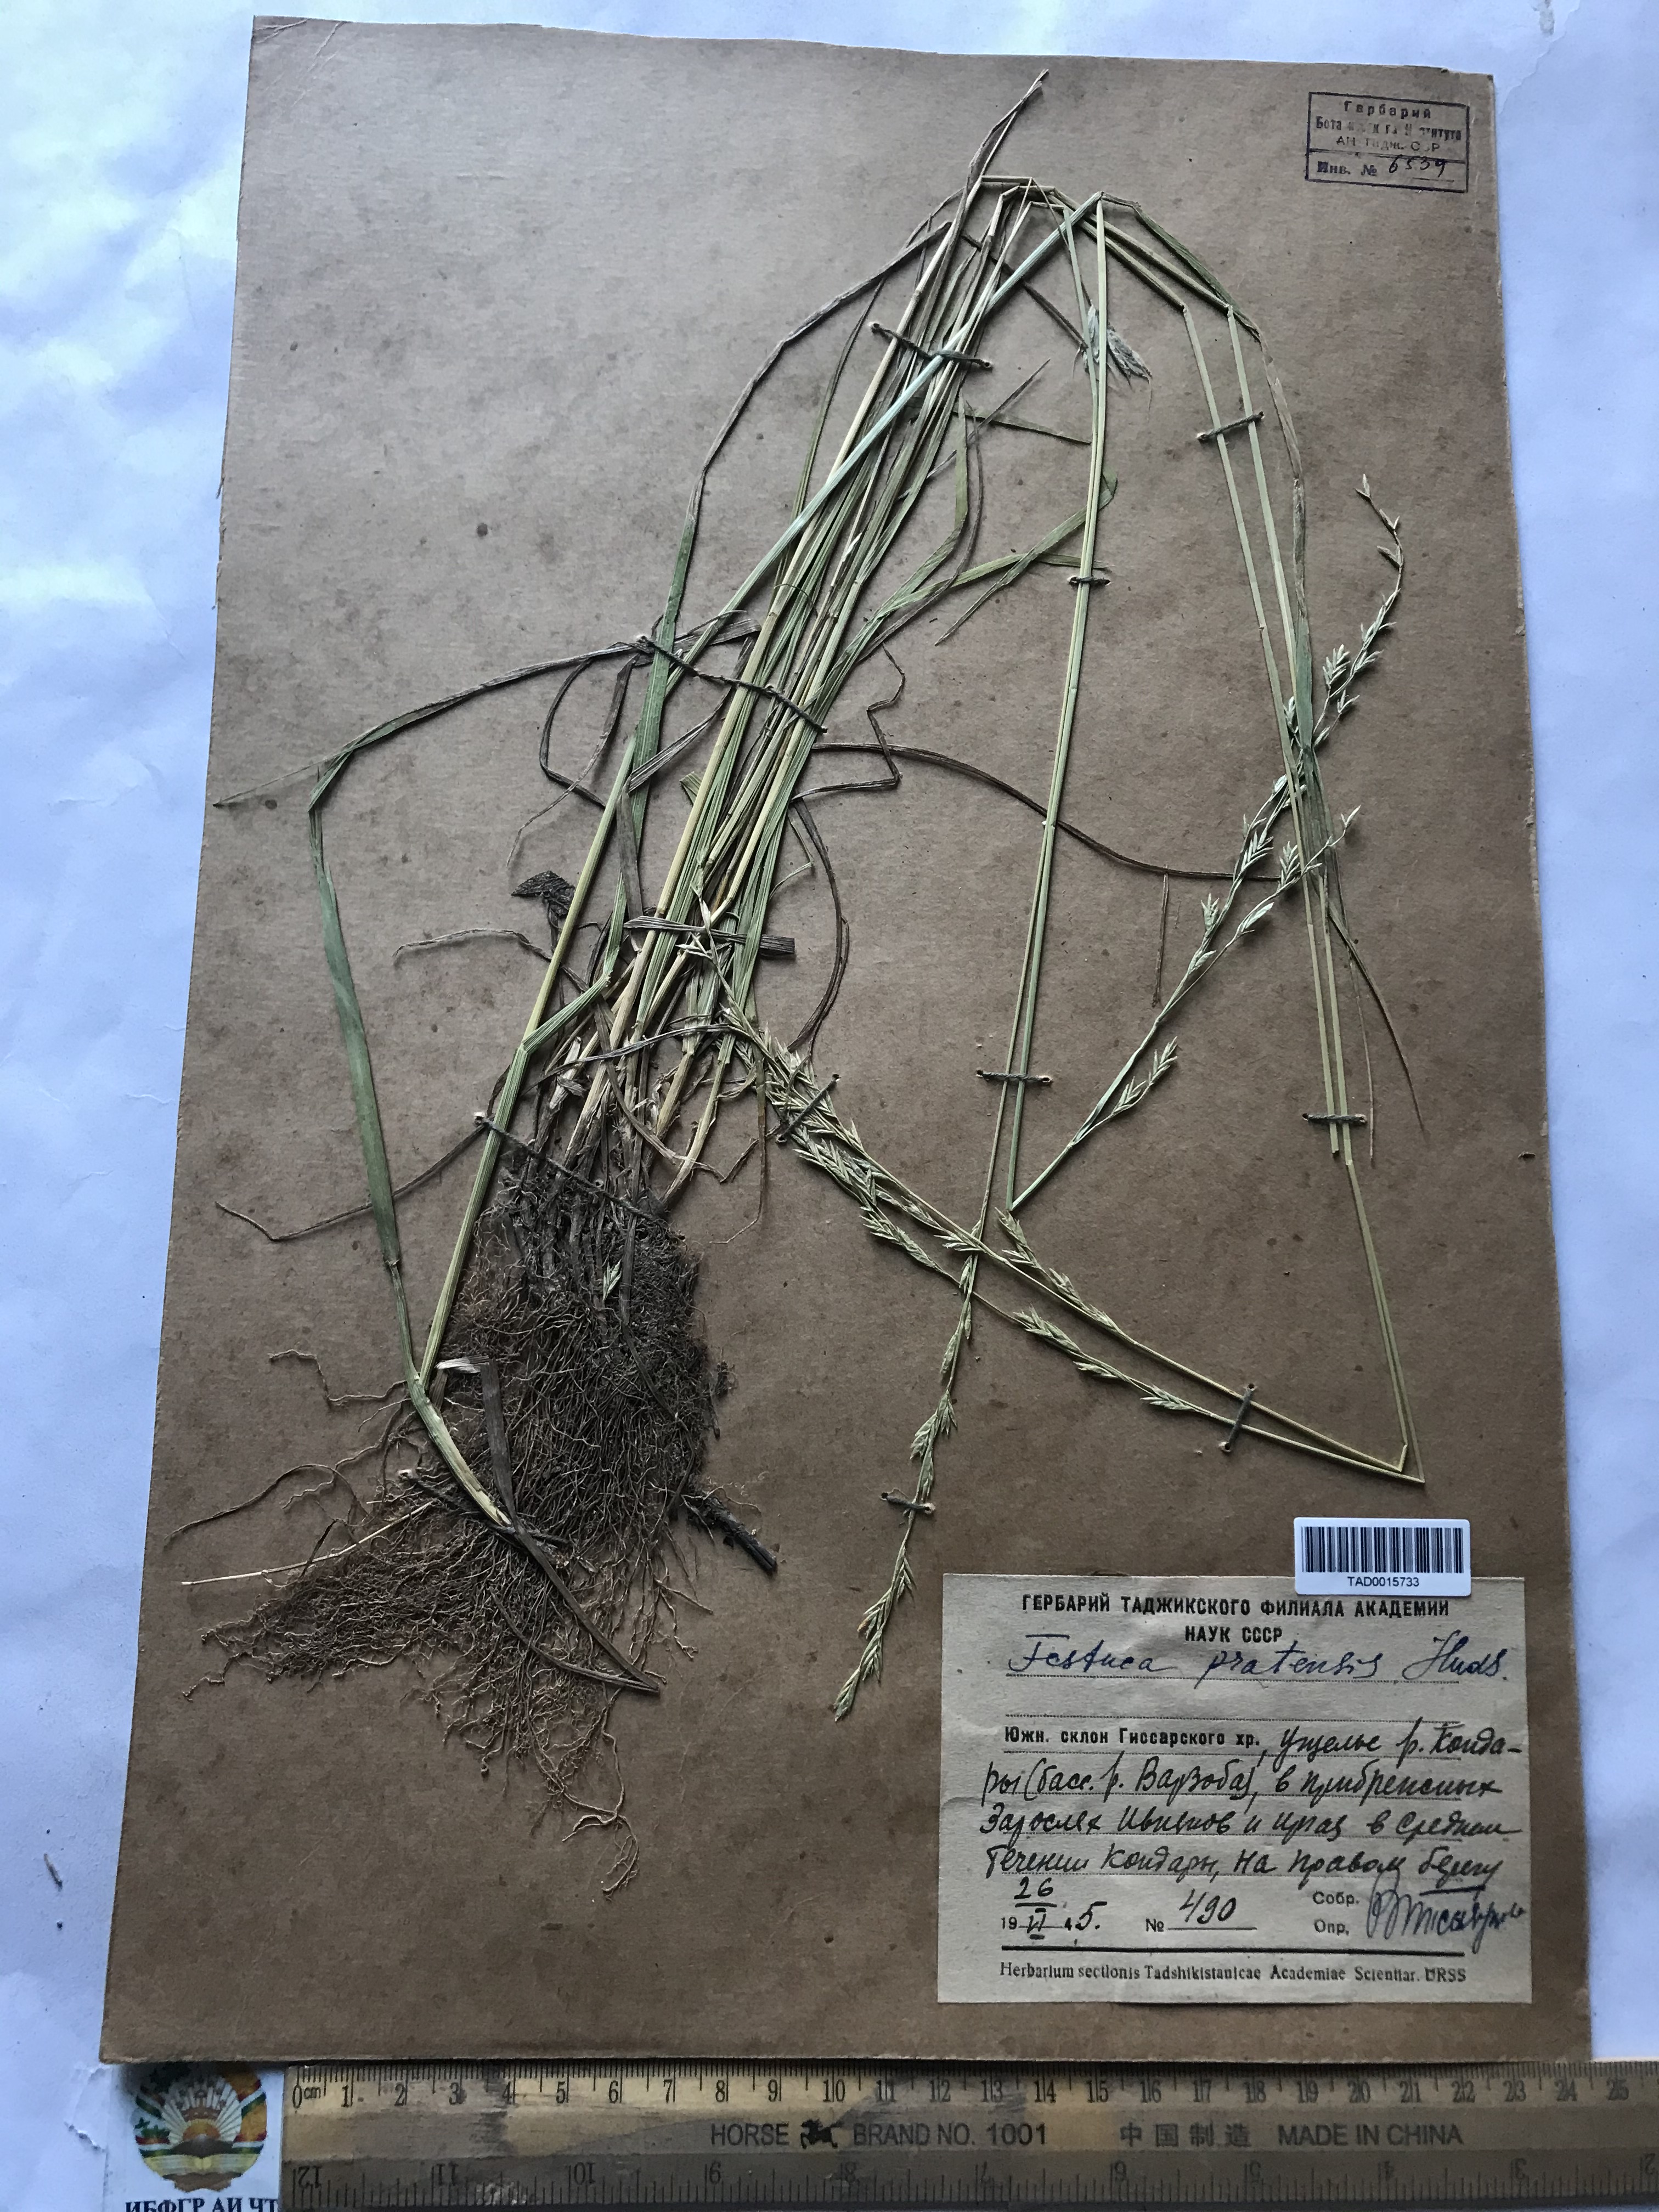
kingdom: Plantae
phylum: Tracheophyta
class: Liliopsida
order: Poales
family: Poaceae
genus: Lolium
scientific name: Lolium pratense
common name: Dover grass
